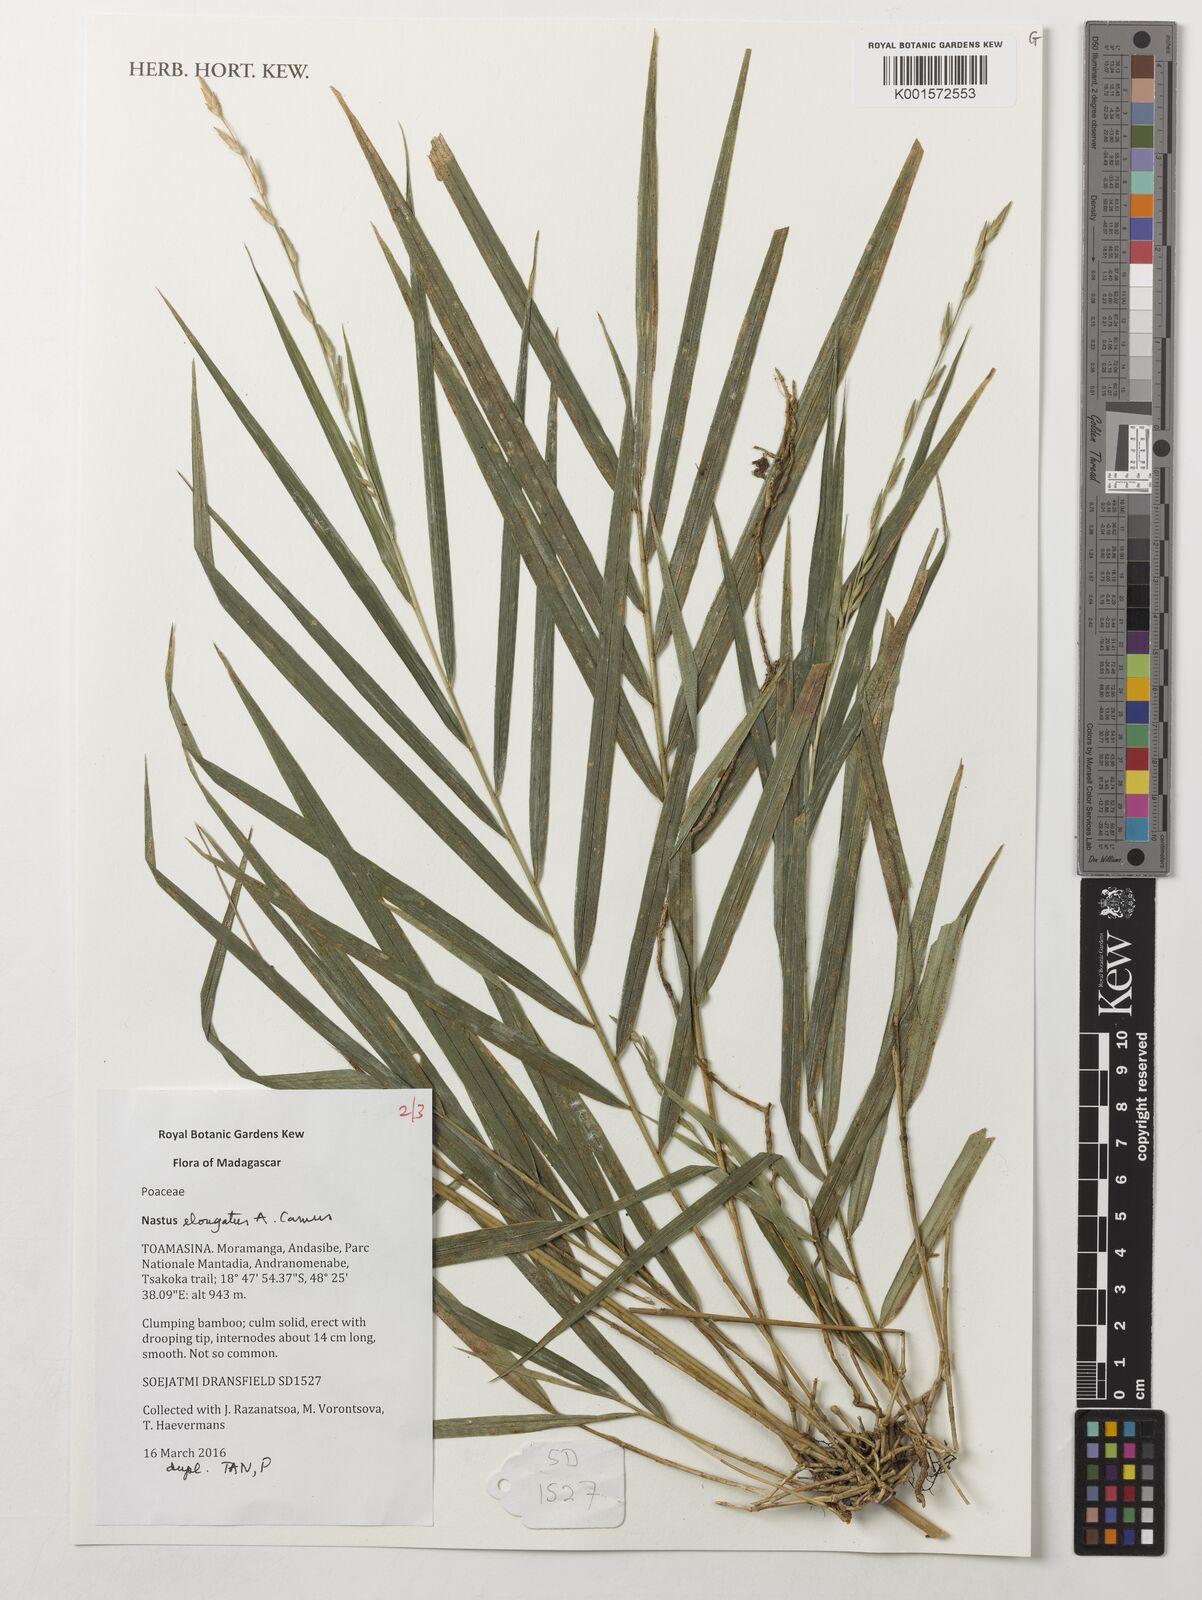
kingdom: Plantae
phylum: Tracheophyta
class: Liliopsida
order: Poales
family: Poaceae
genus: Nastus
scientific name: Nastus elongatus
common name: Spider bamboo
